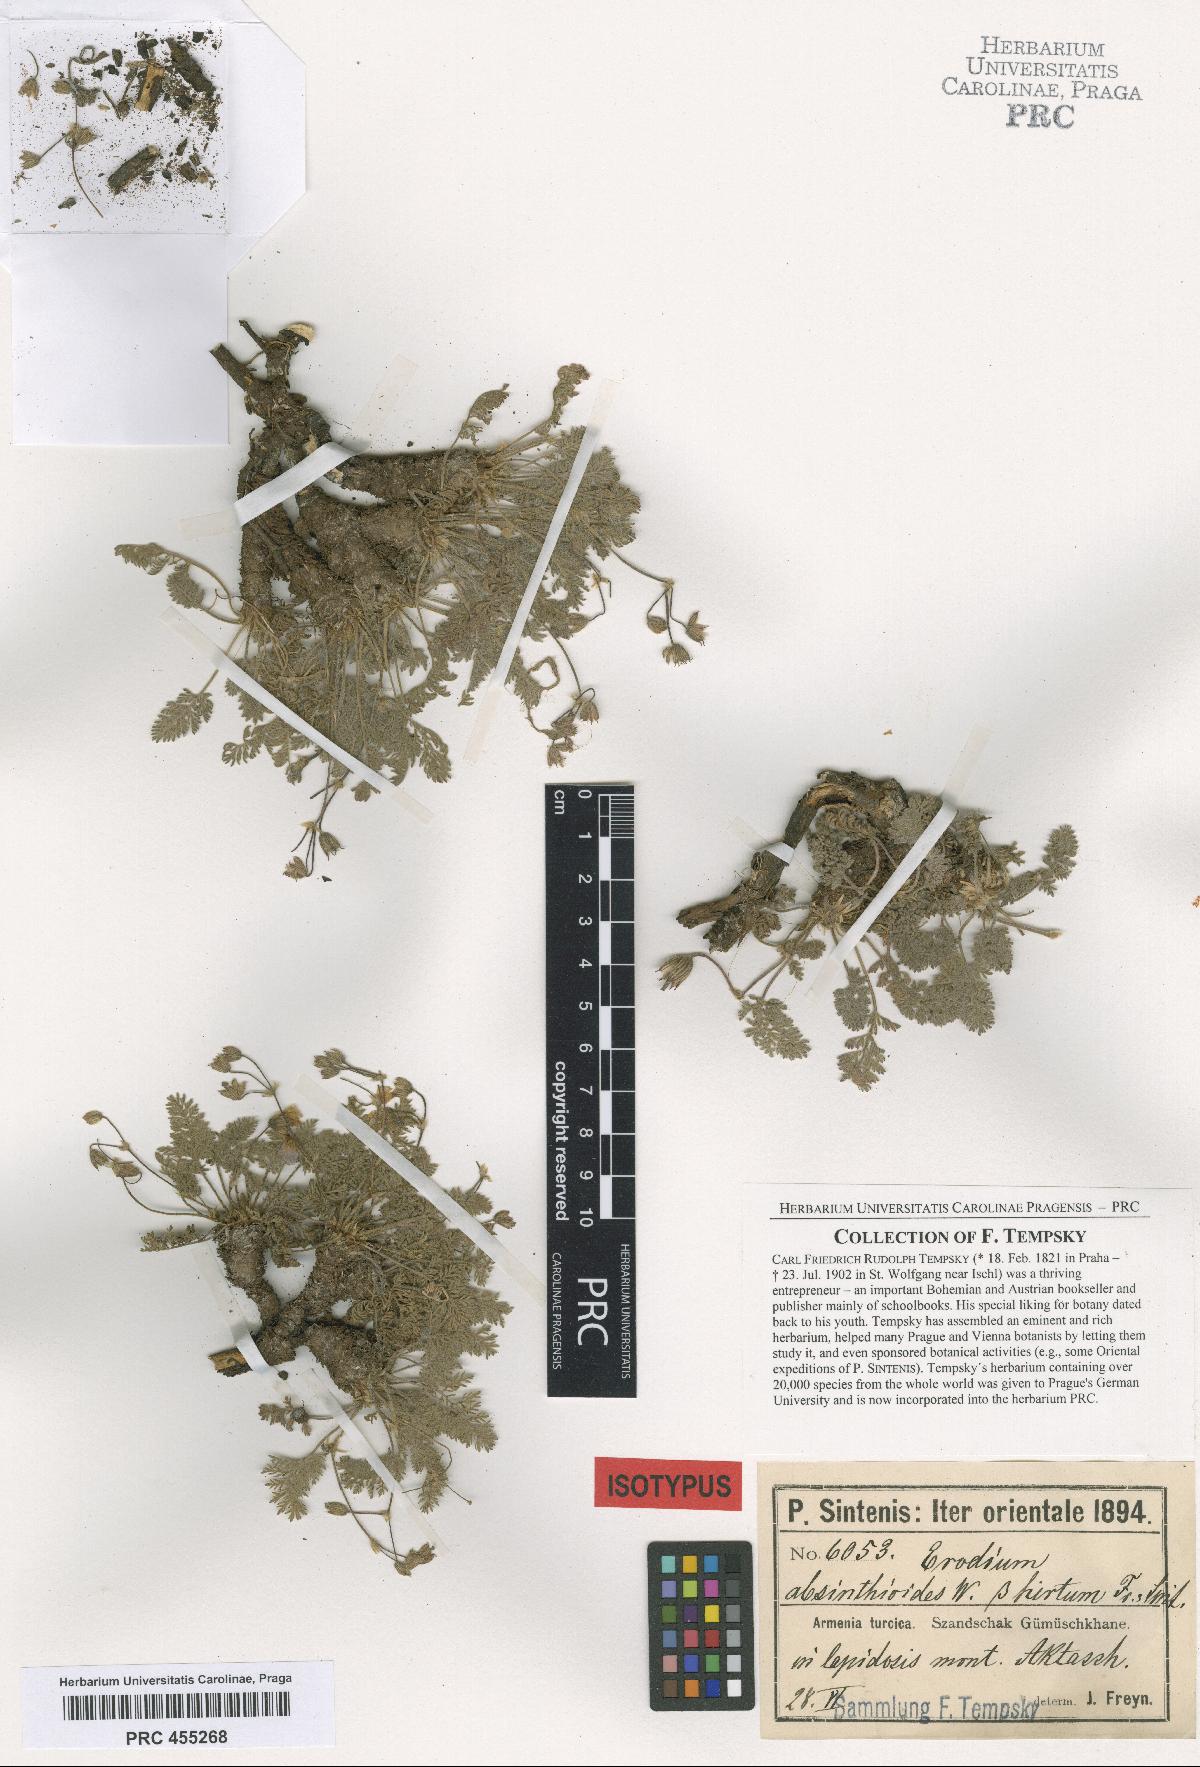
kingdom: Plantae
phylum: Tracheophyta
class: Magnoliopsida
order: Geraniales
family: Geraniaceae
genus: Erodium
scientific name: Erodium absinthoides
